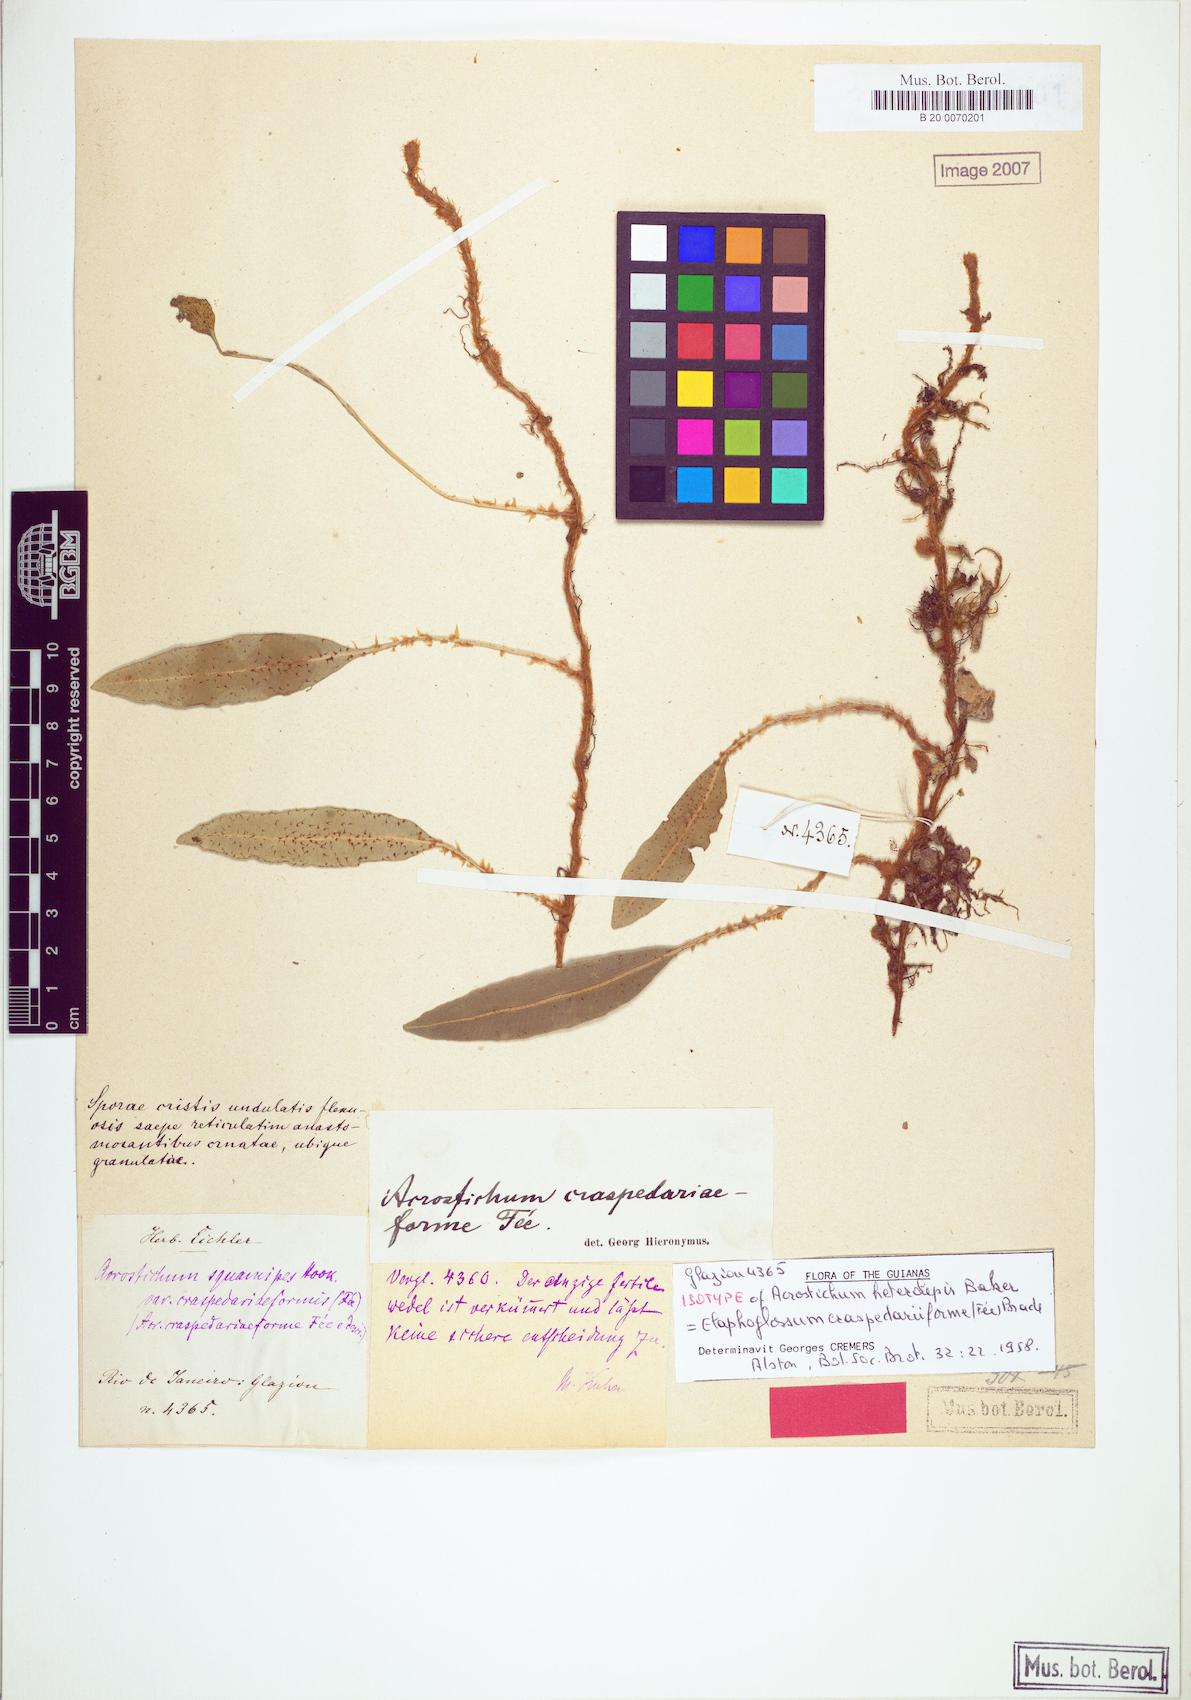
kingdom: Plantae
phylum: Tracheophyta
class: Polypodiopsida
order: Polypodiales
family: Dryopteridaceae
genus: Elaphoglossum
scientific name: Elaphoglossum squamipes
